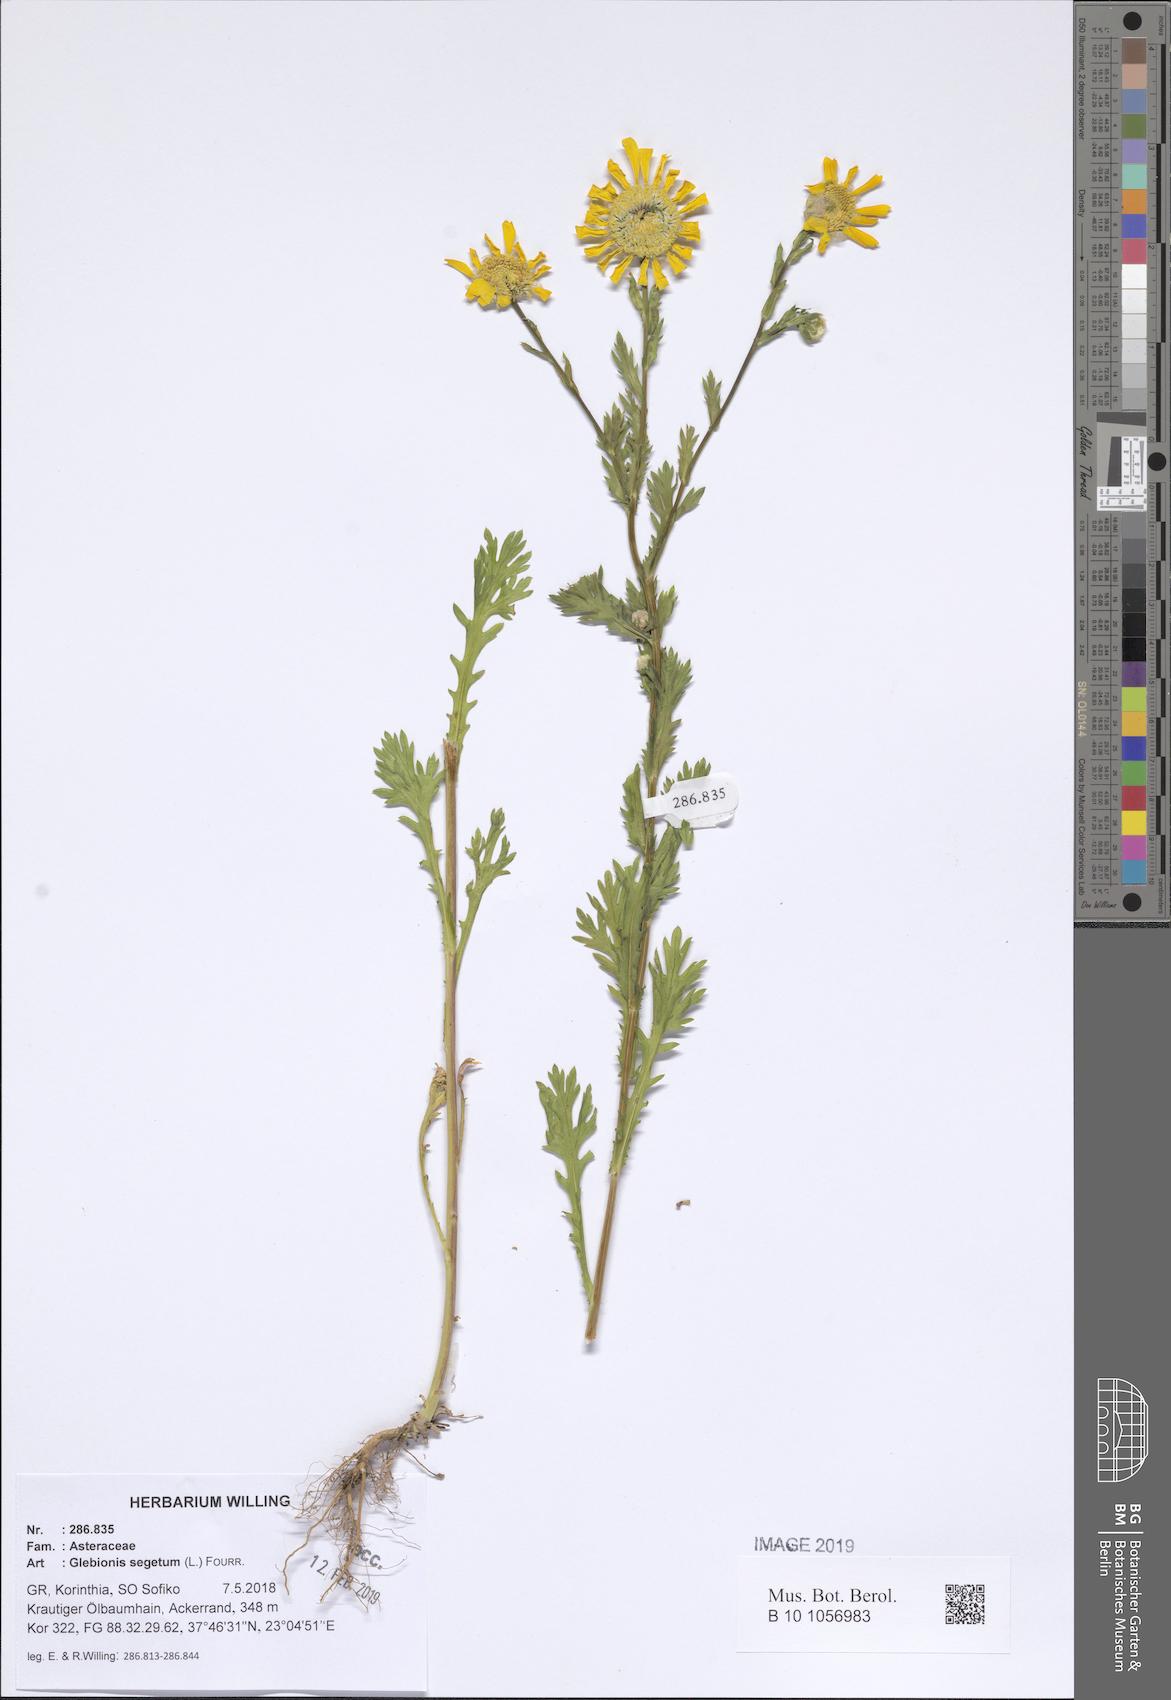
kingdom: Plantae
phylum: Tracheophyta
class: Magnoliopsida
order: Asterales
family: Asteraceae
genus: Glebionis
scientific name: Glebionis segetum
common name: Corndaisy
